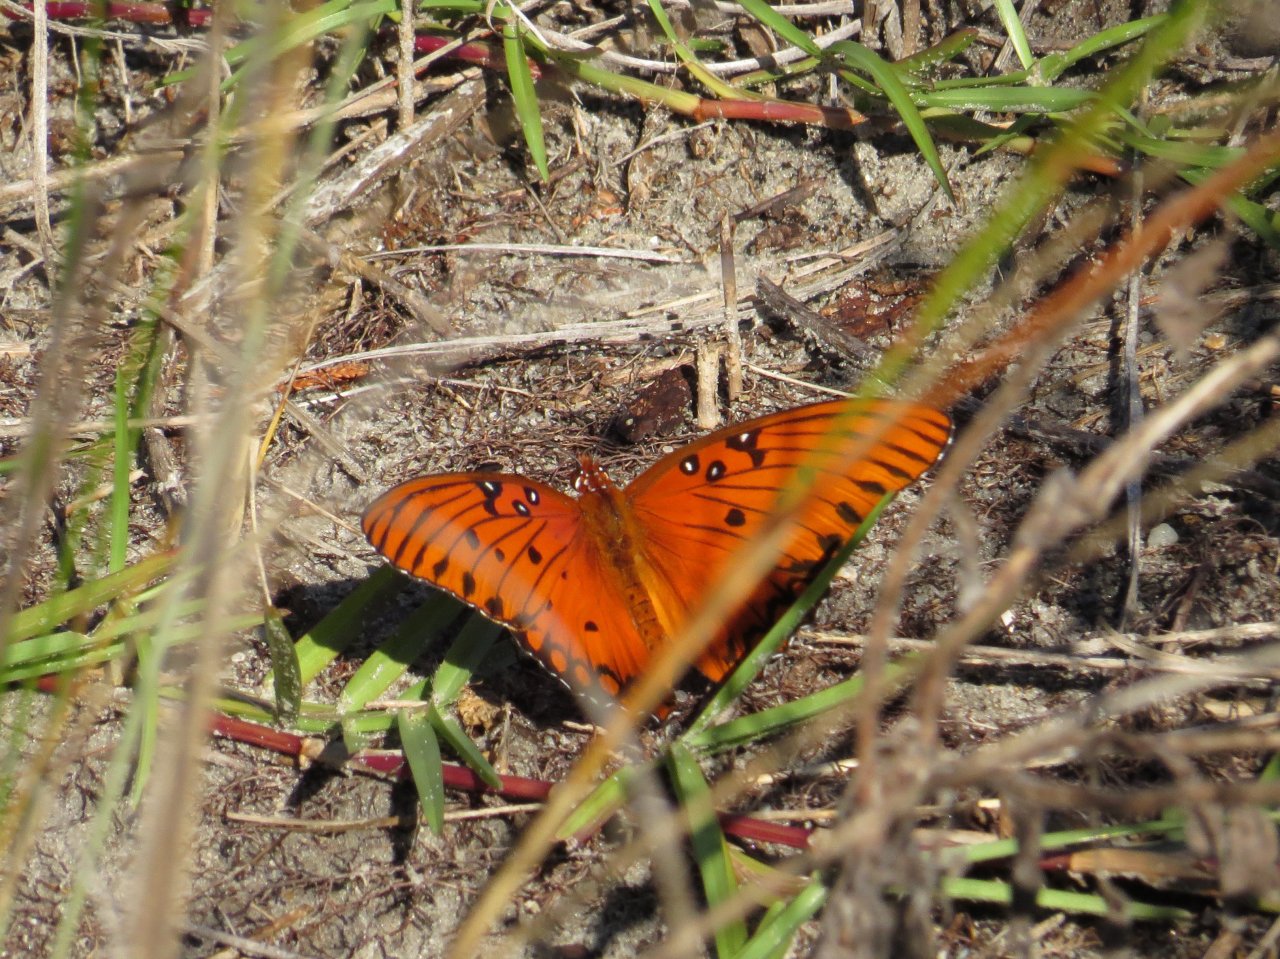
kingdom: Animalia
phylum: Arthropoda
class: Insecta
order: Lepidoptera
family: Nymphalidae
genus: Dione
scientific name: Dione vanillae
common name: Gulf Fritillary
